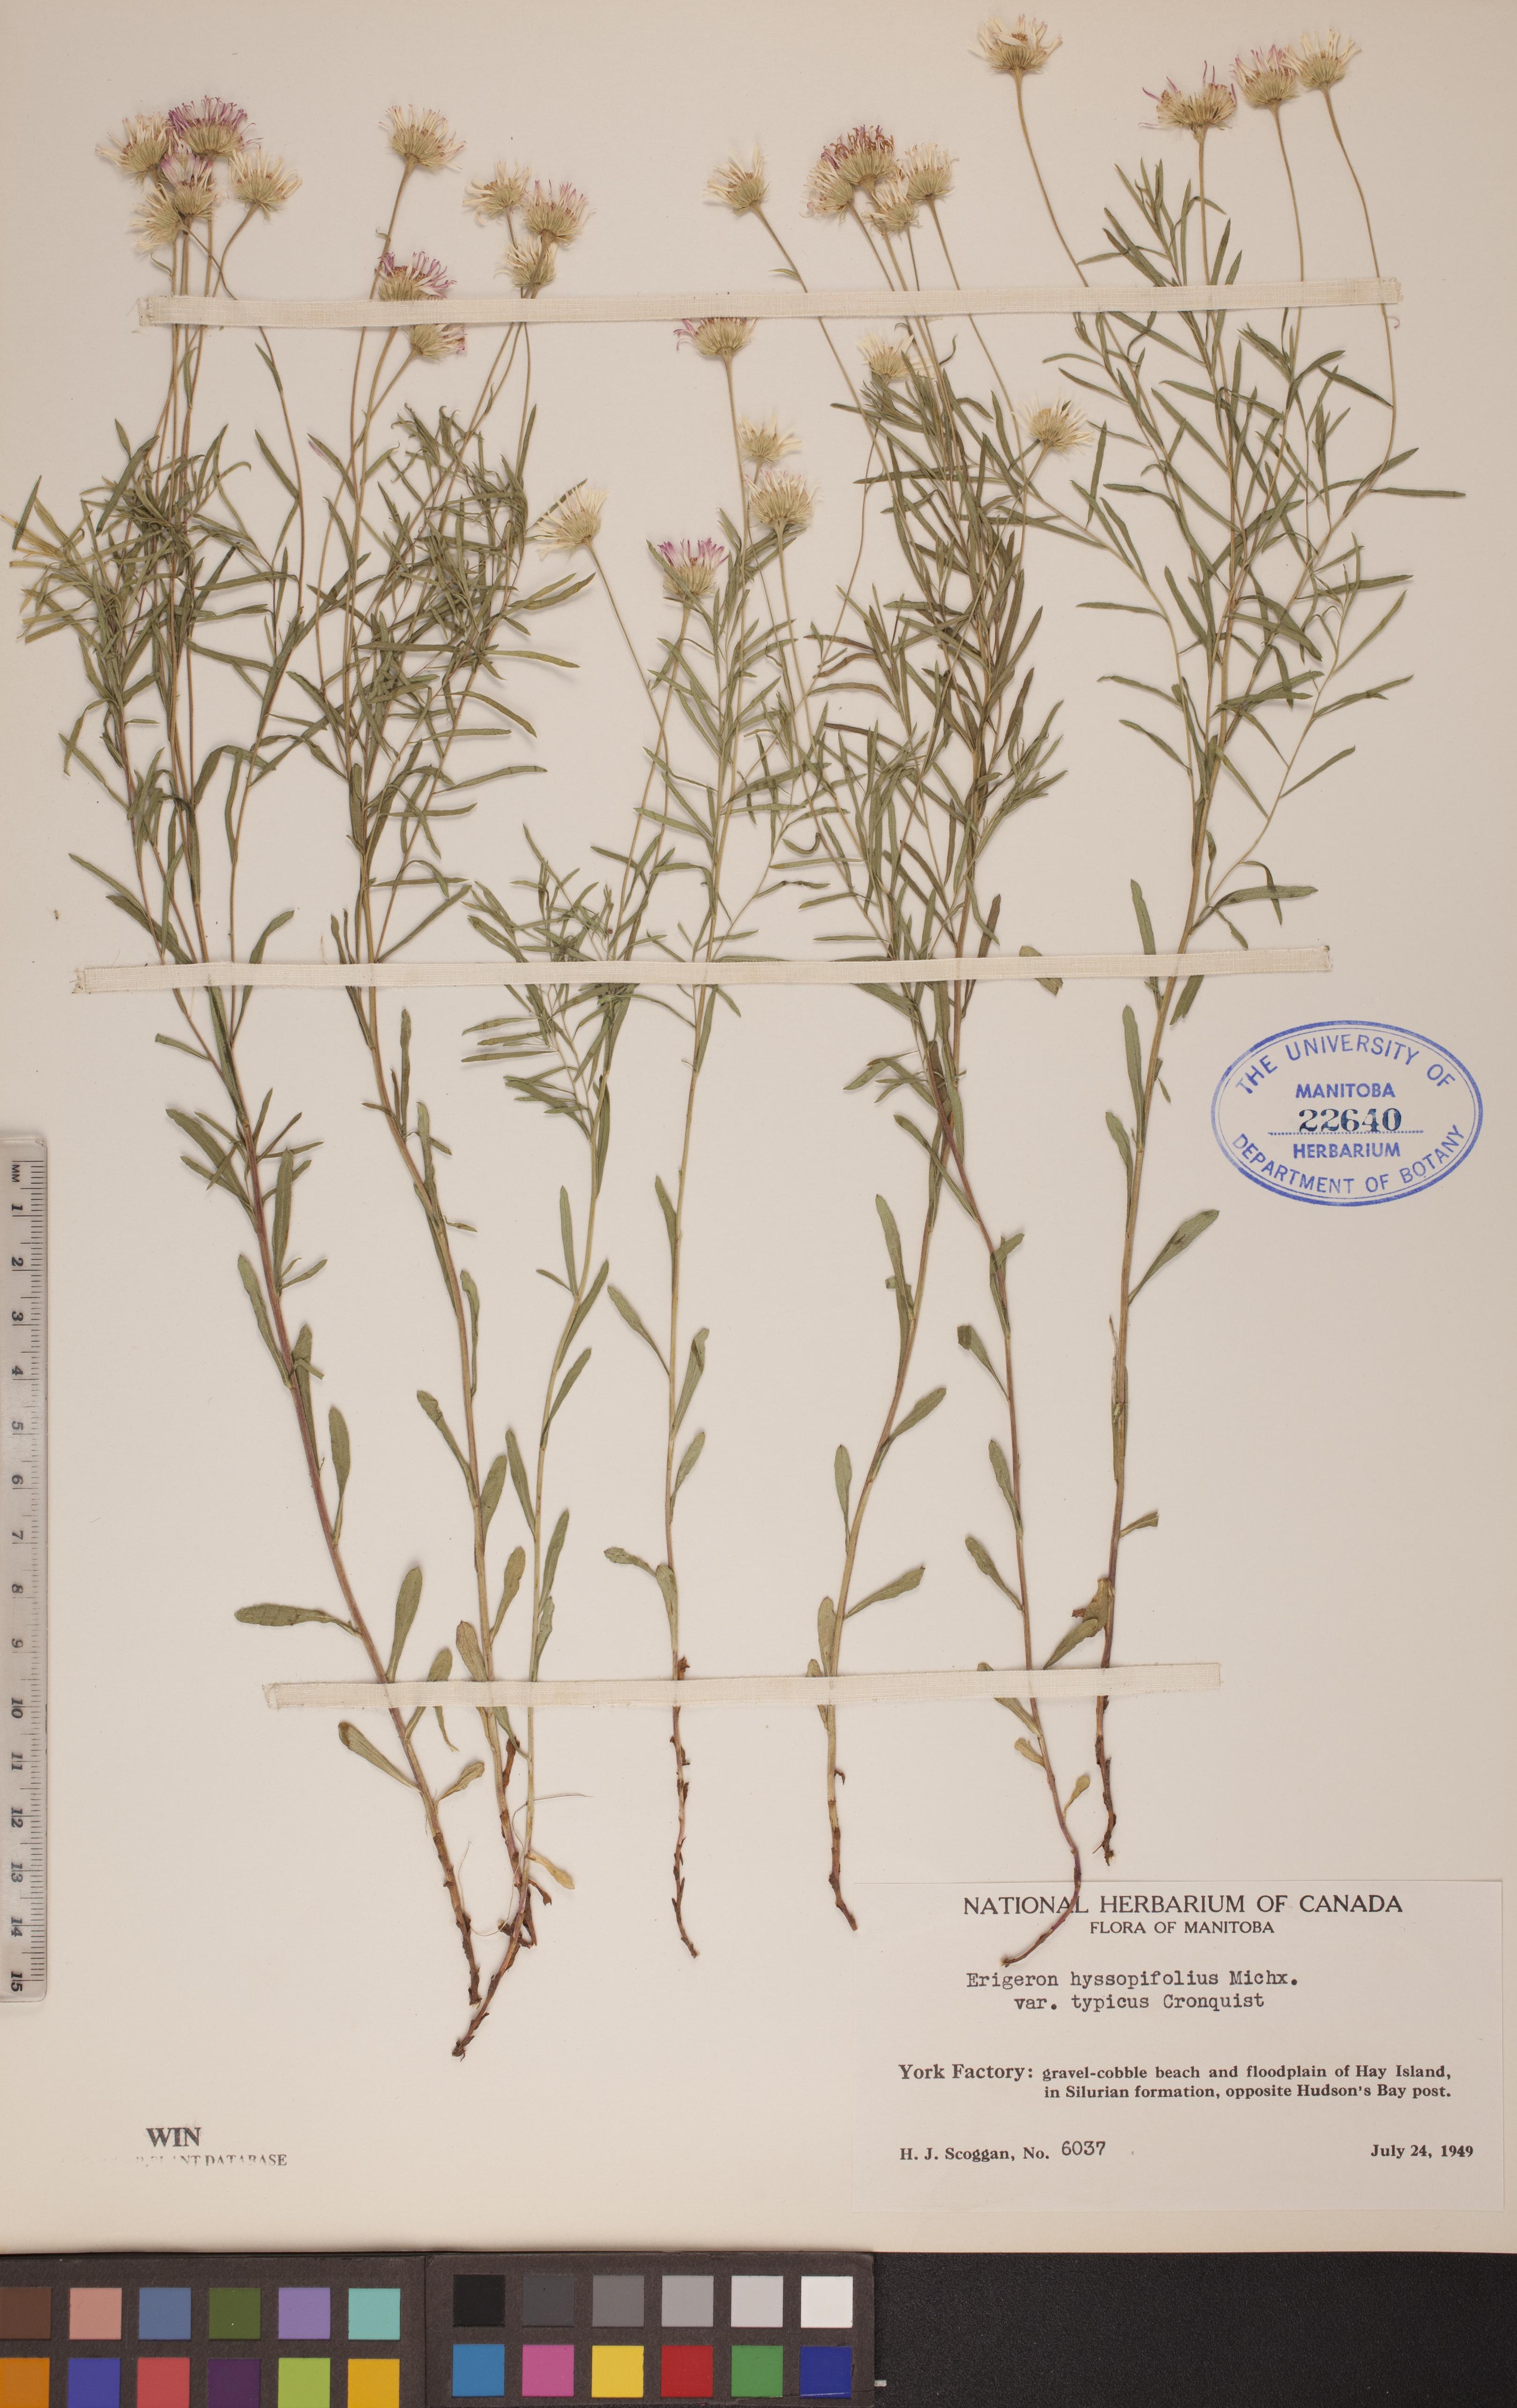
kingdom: Plantae
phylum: Tracheophyta
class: Magnoliopsida
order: Asterales
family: Asteraceae
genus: Erigeron
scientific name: Erigeron hyssopifolius
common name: Daisy fleabane
